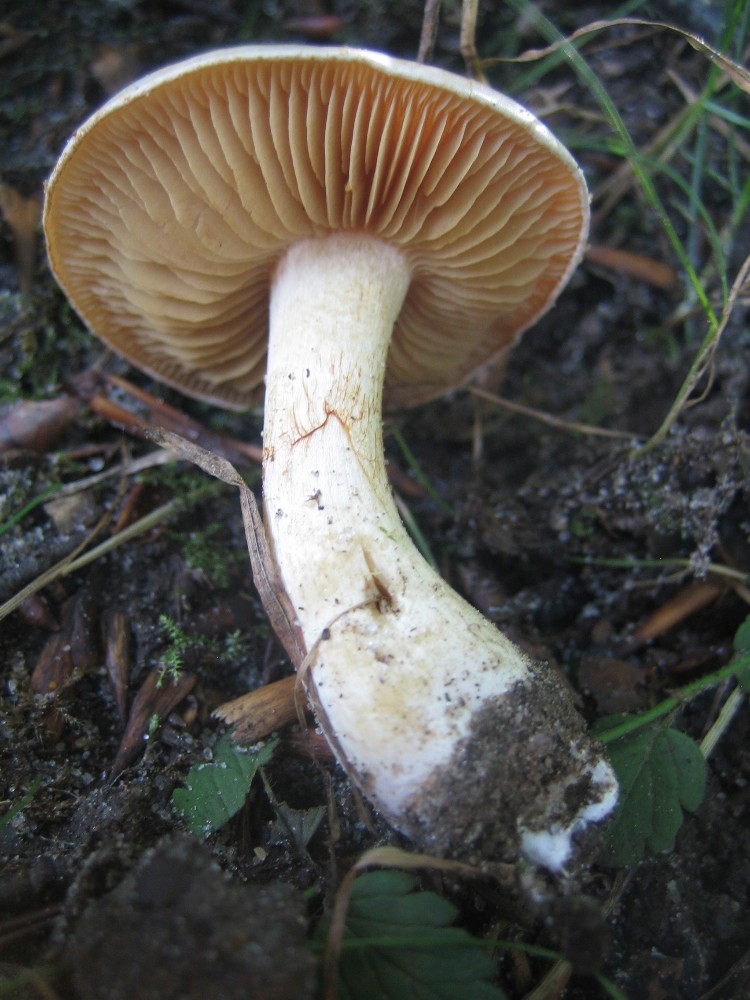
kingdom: Fungi
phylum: Basidiomycota
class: Agaricomycetes
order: Agaricales
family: Cortinariaceae
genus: Cortinarius
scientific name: Cortinarius
